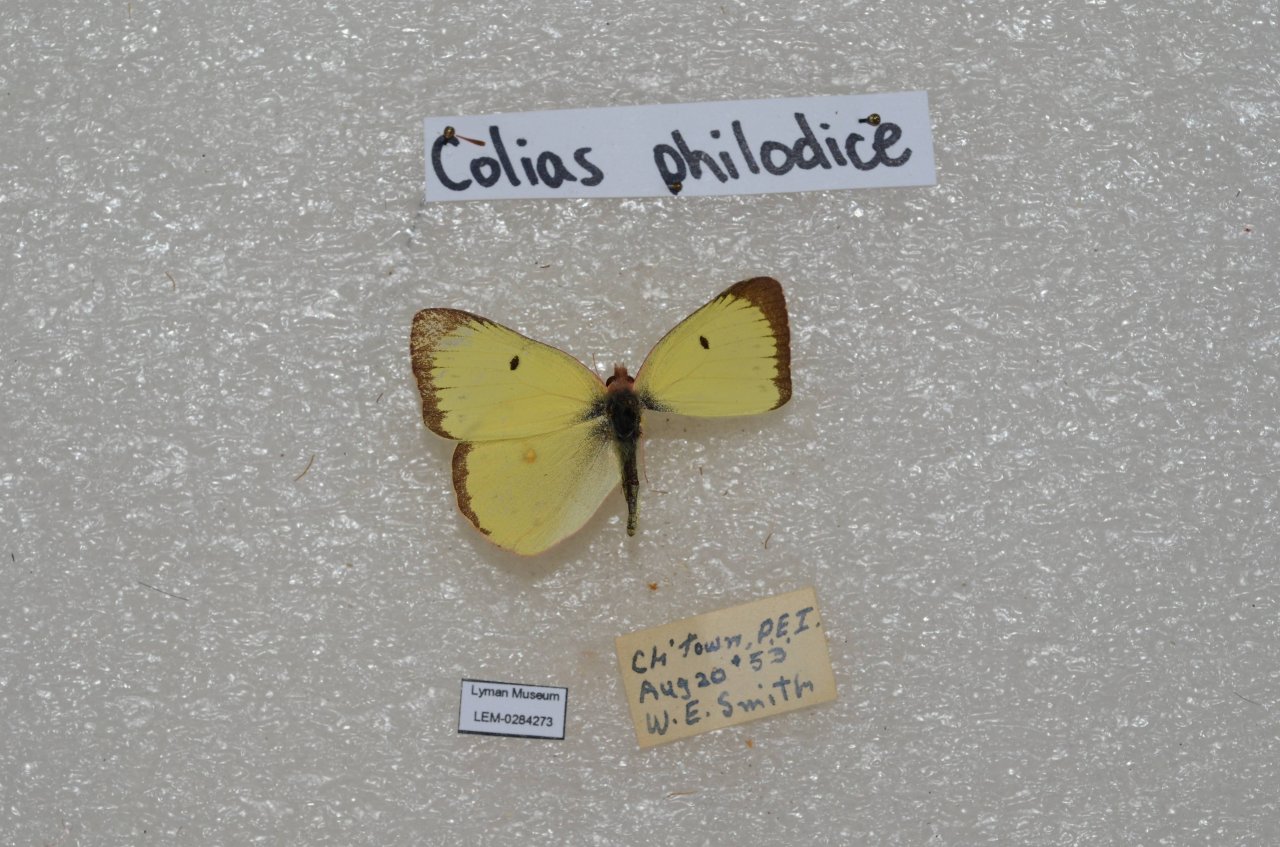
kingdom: Animalia
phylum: Arthropoda
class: Insecta
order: Lepidoptera
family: Pieridae
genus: Colias
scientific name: Colias philodice
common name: Clouded Sulphur
